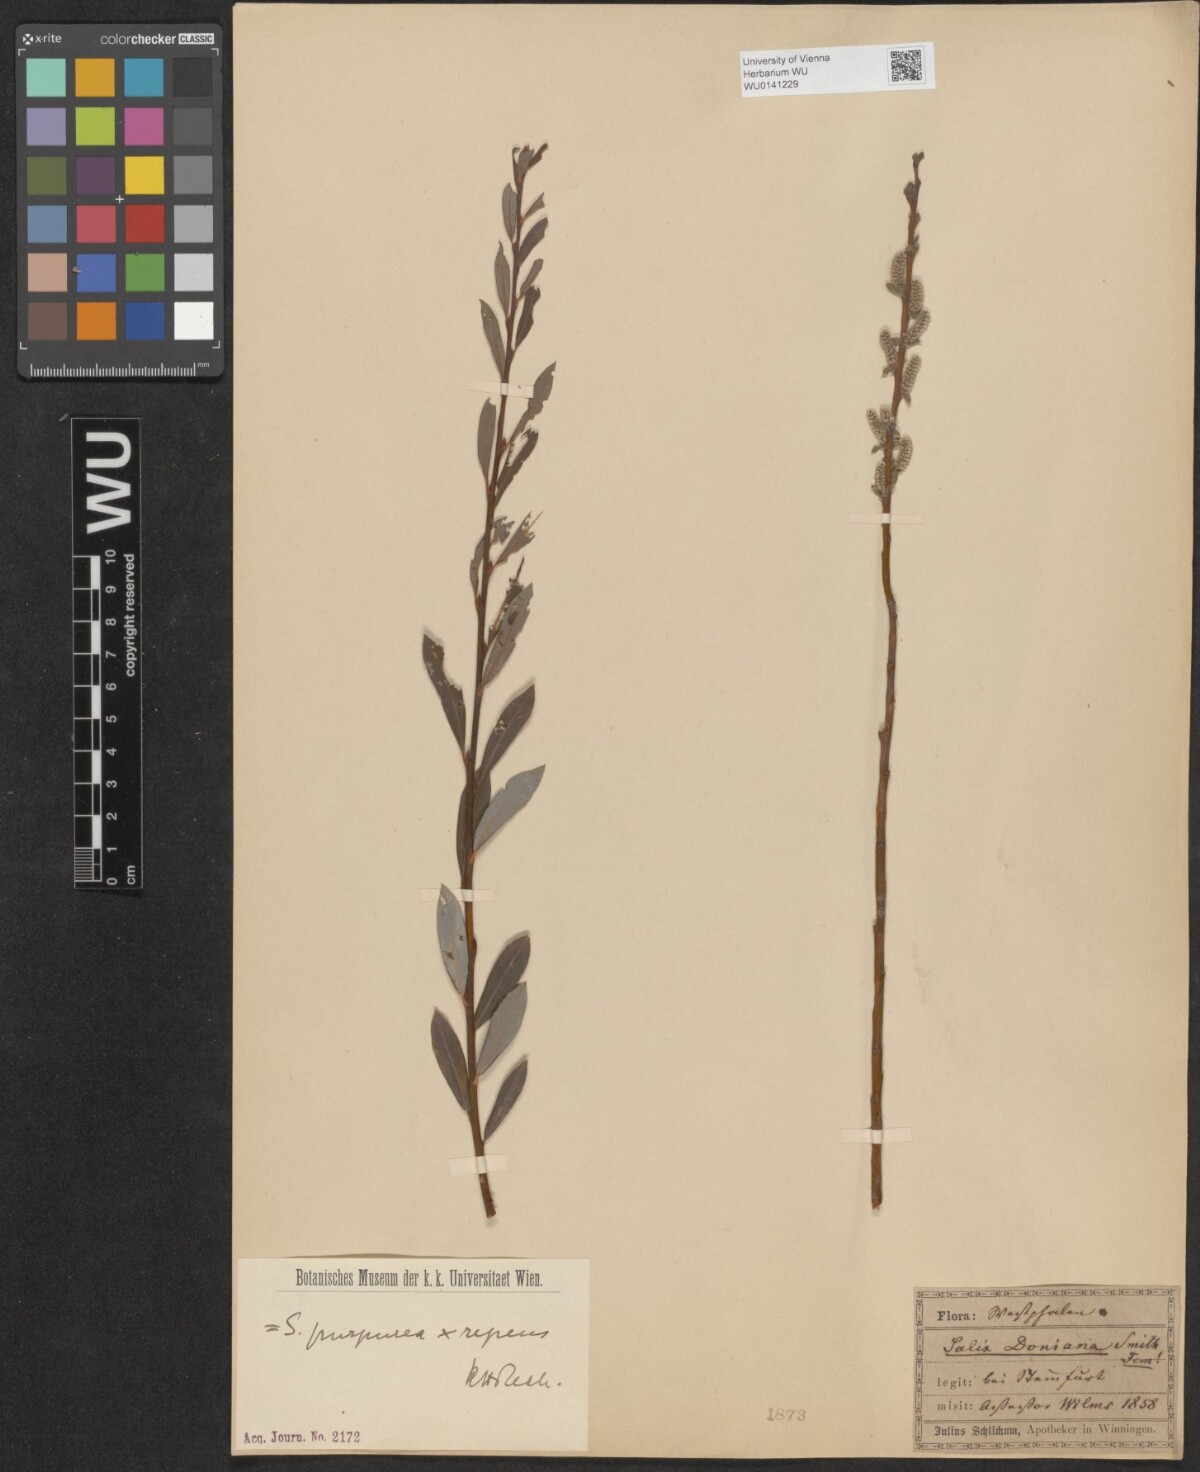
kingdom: Plantae
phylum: Tracheophyta
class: Magnoliopsida
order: Malpighiales
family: Salicaceae
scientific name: Salicaceae
